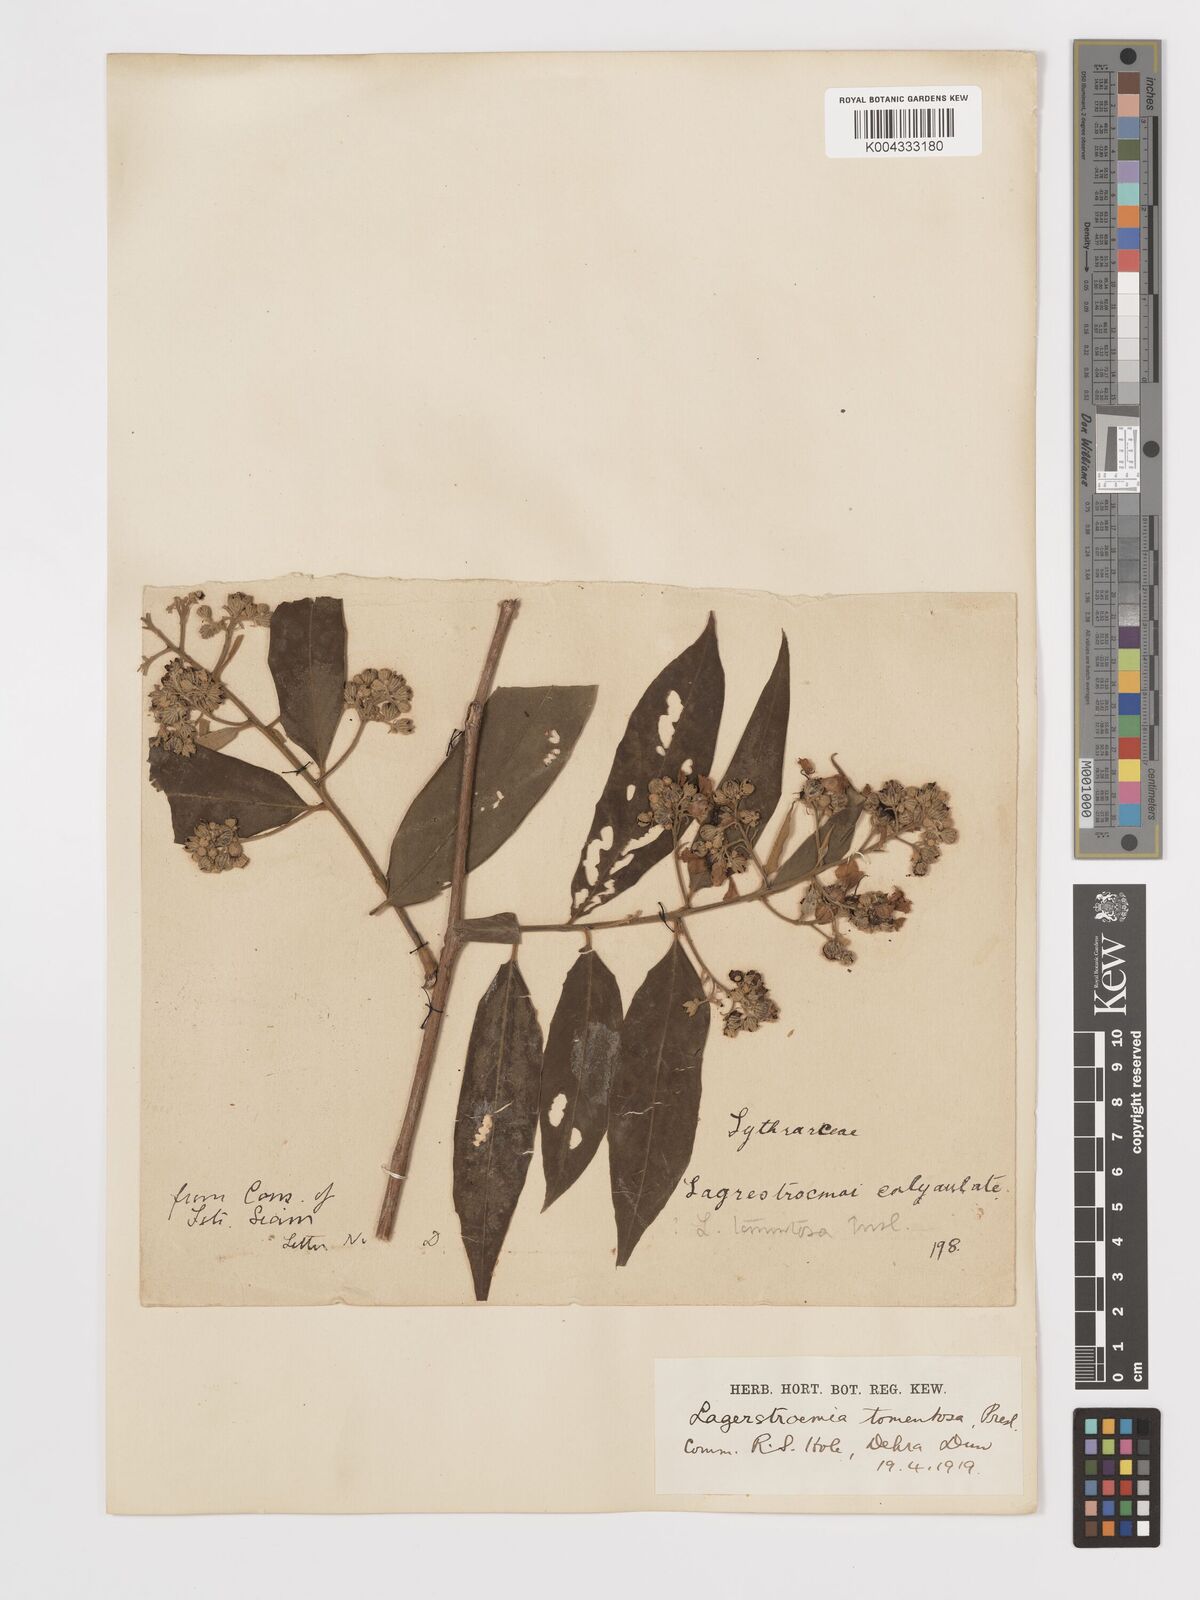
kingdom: Plantae
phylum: Tracheophyta
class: Magnoliopsida
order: Myrtales
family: Lythraceae
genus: Lagerstroemia
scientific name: Lagerstroemia tomentosa
